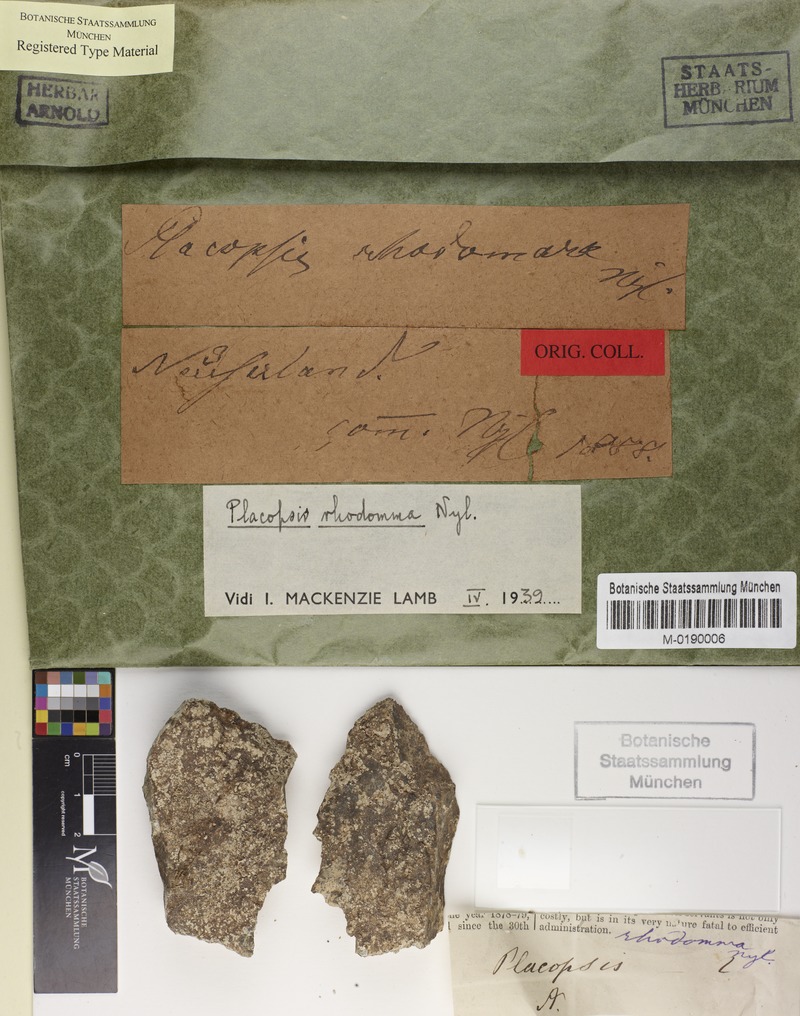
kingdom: Fungi
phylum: Ascomycota
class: Lecanoromycetes
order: Baeomycetales
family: Trapeliaceae
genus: Placopsis
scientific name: Placopsis
